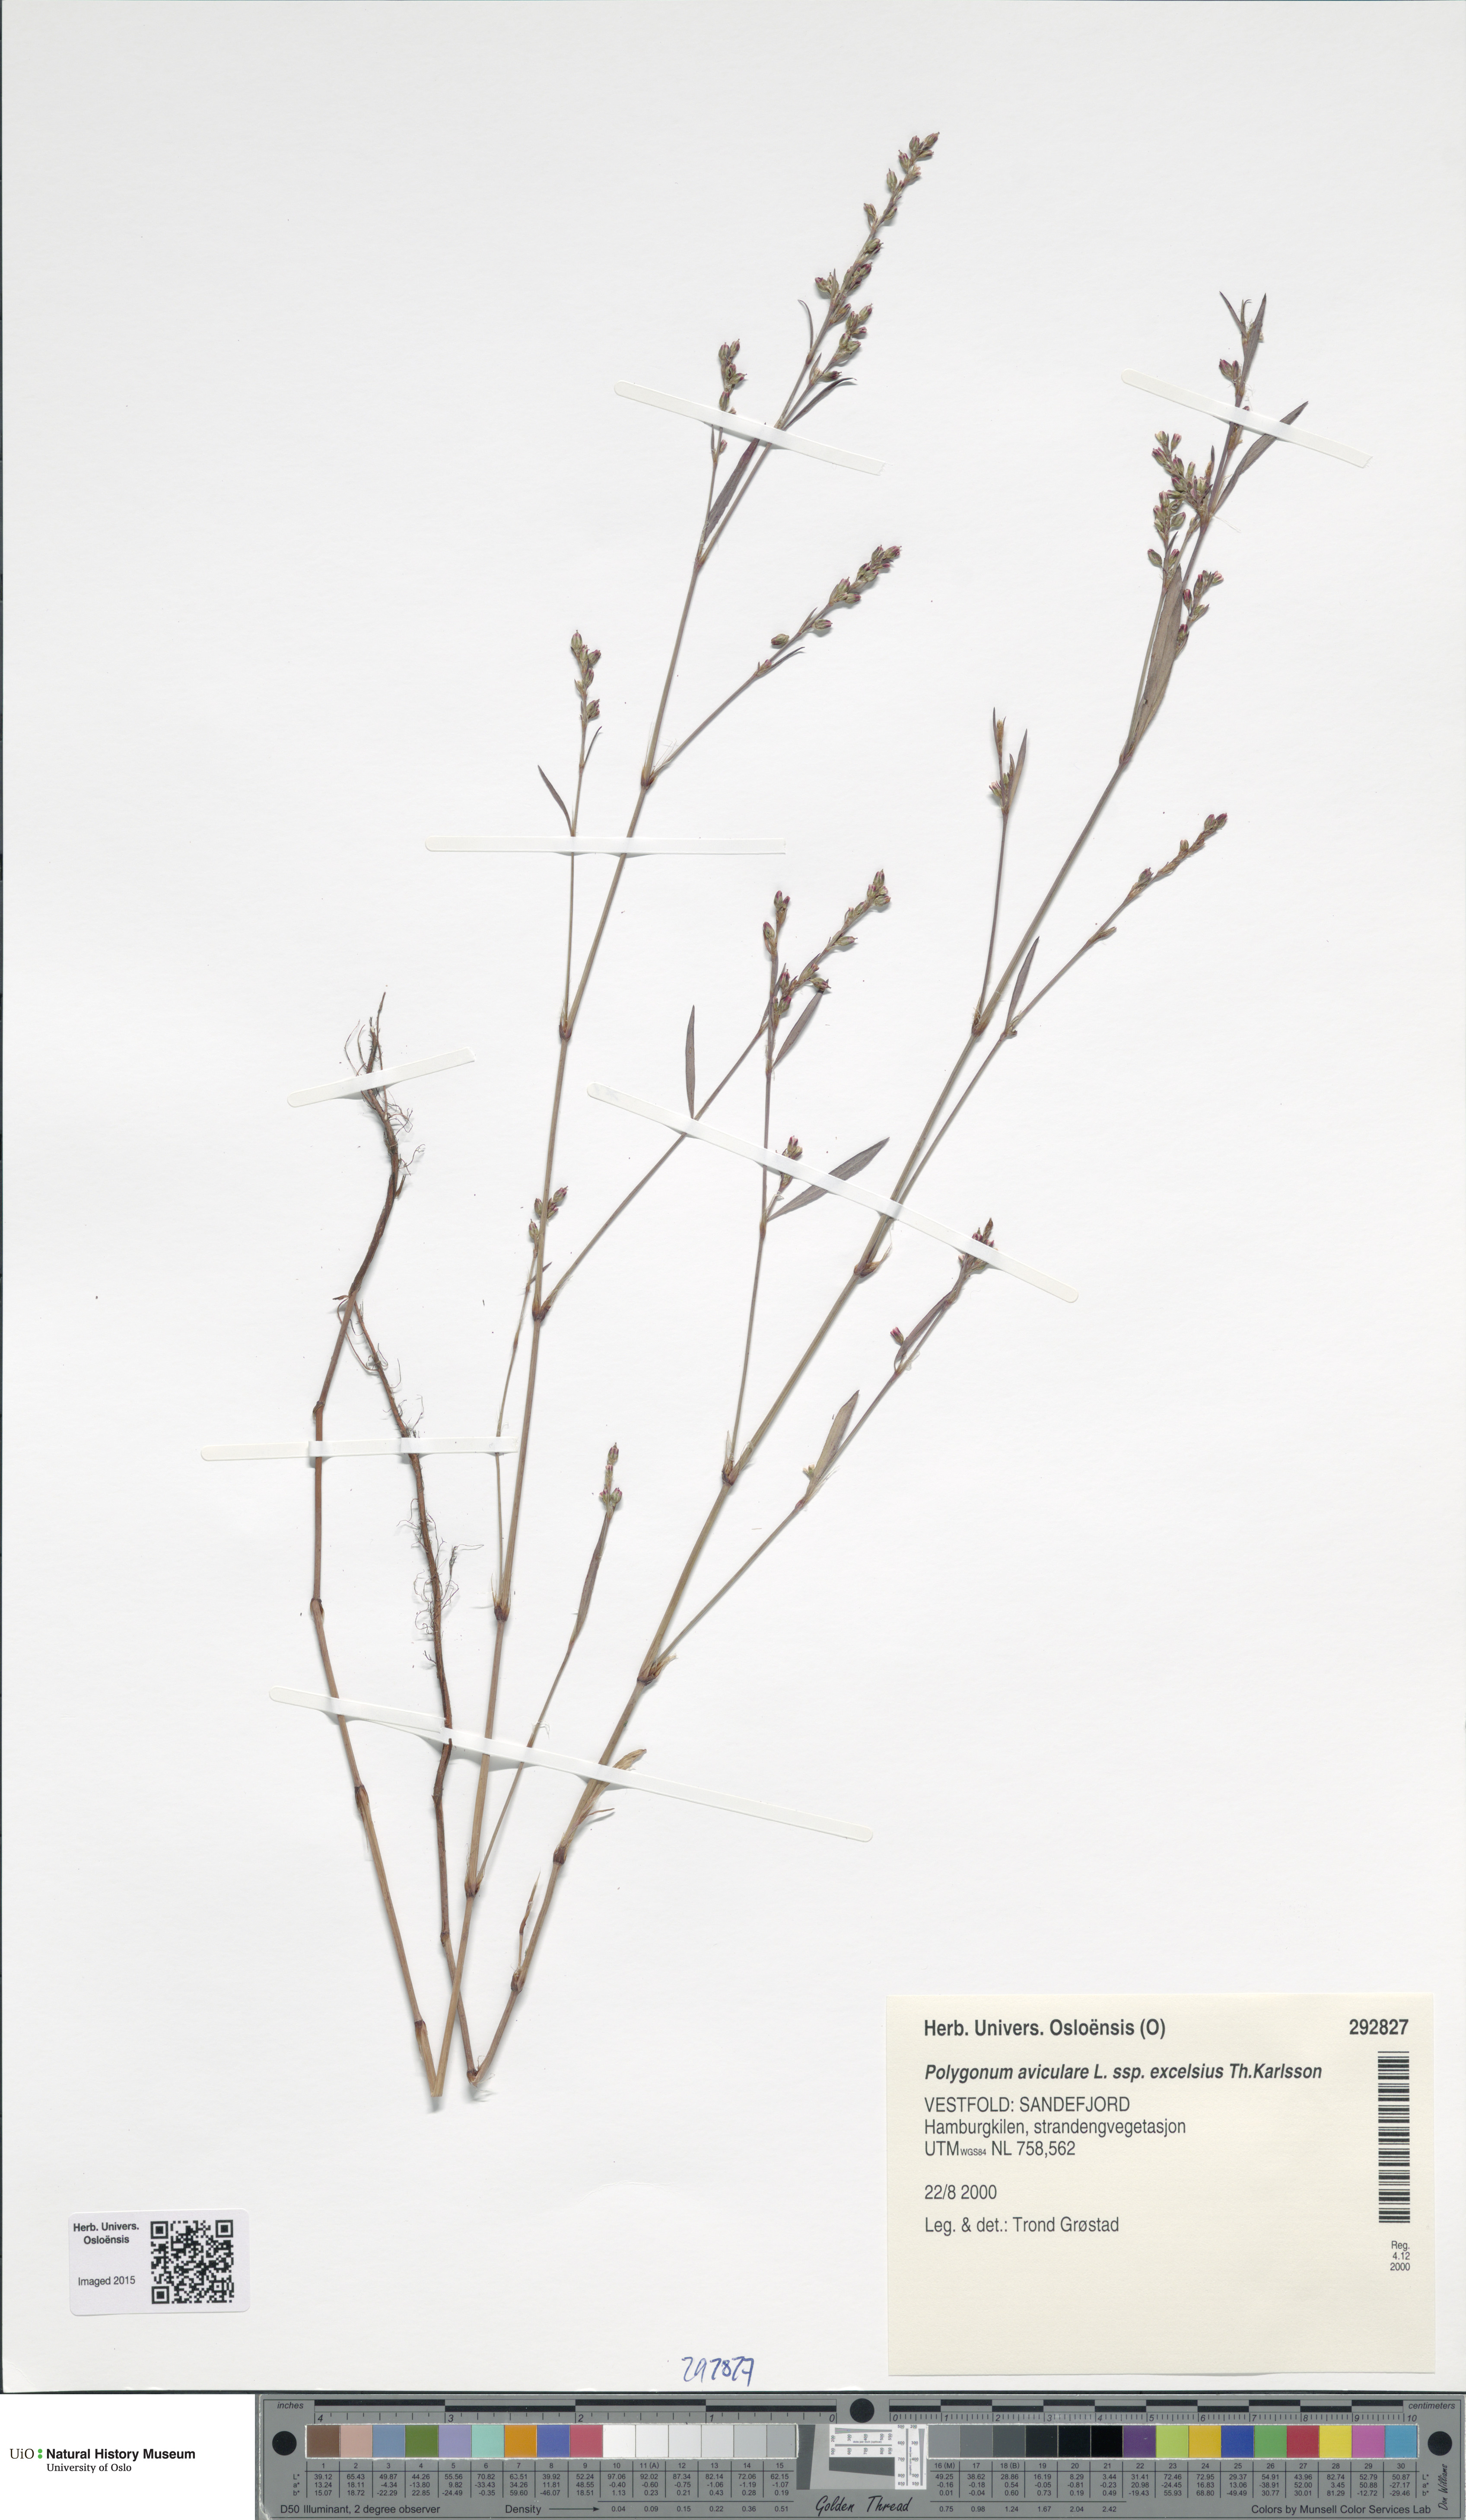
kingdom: Plantae
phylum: Tracheophyta
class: Magnoliopsida
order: Caryophyllales
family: Polygonaceae
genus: Polygonum
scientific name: Polygonum excelsius
